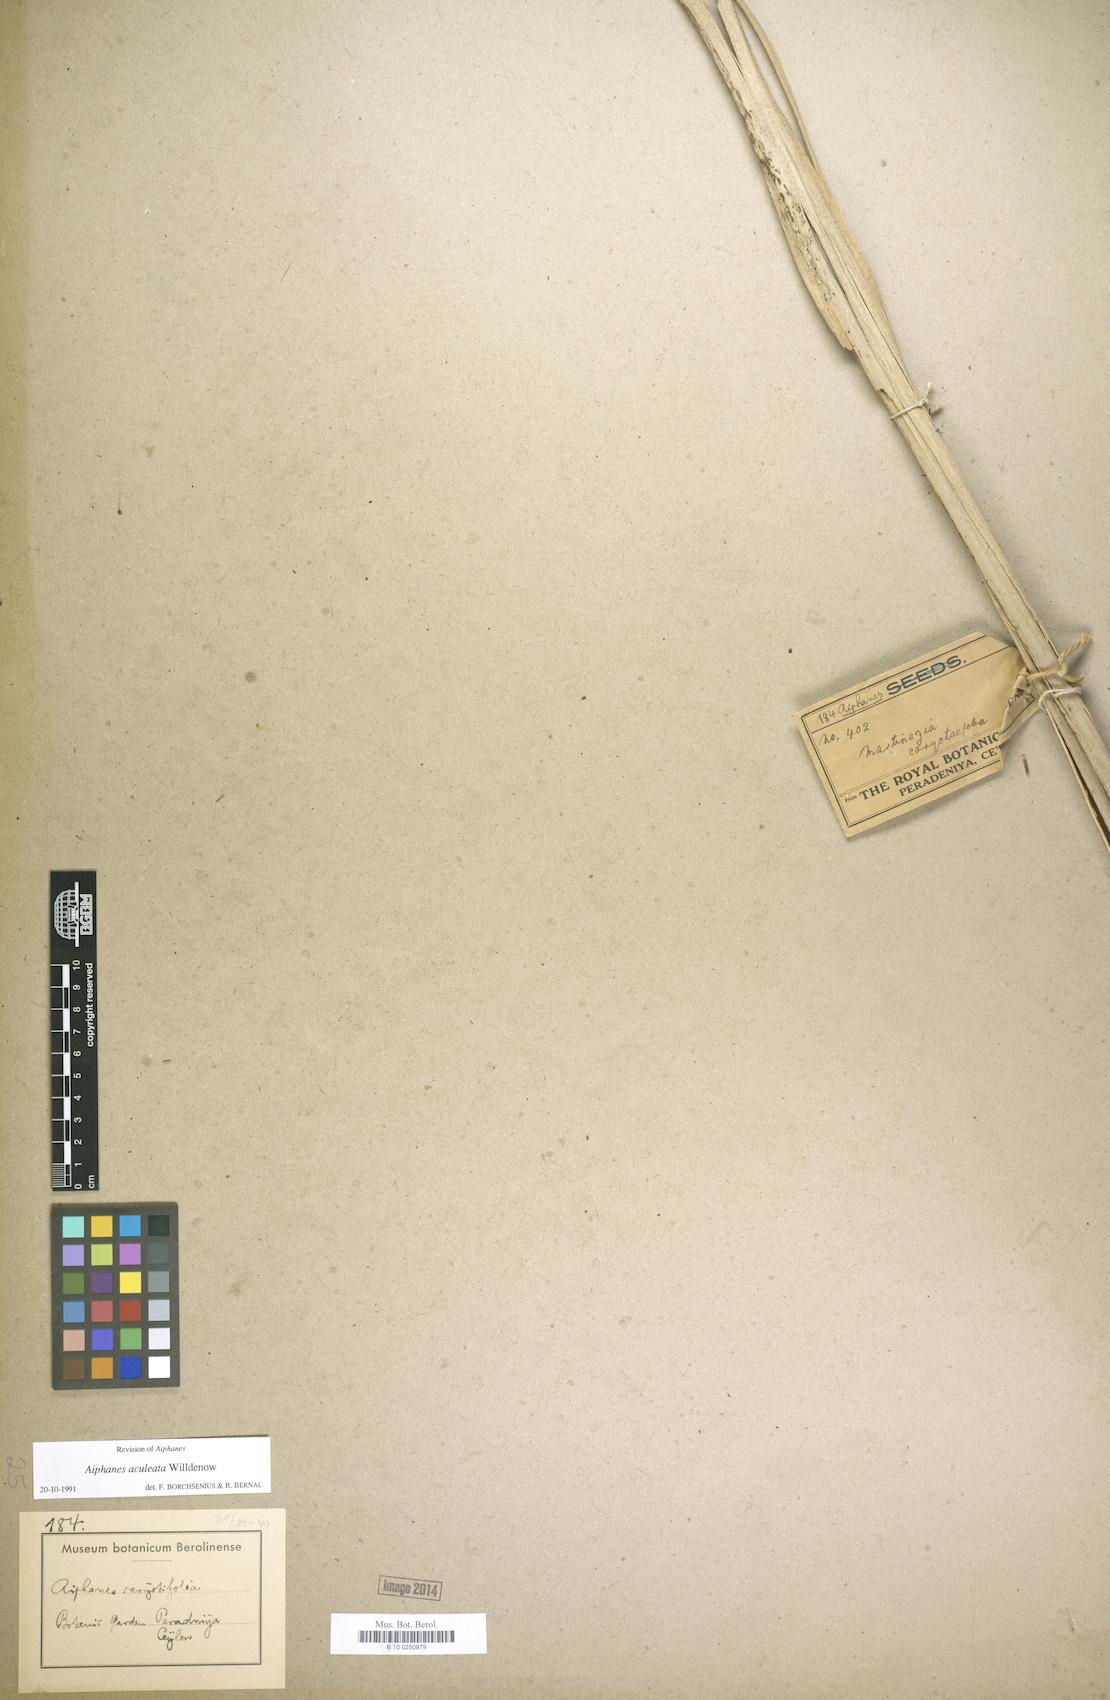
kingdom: Plantae
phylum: Tracheophyta
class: Liliopsida
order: Arecales
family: Arecaceae
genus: Aiphanes
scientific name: Aiphanes horrida
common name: Ruffle palm
